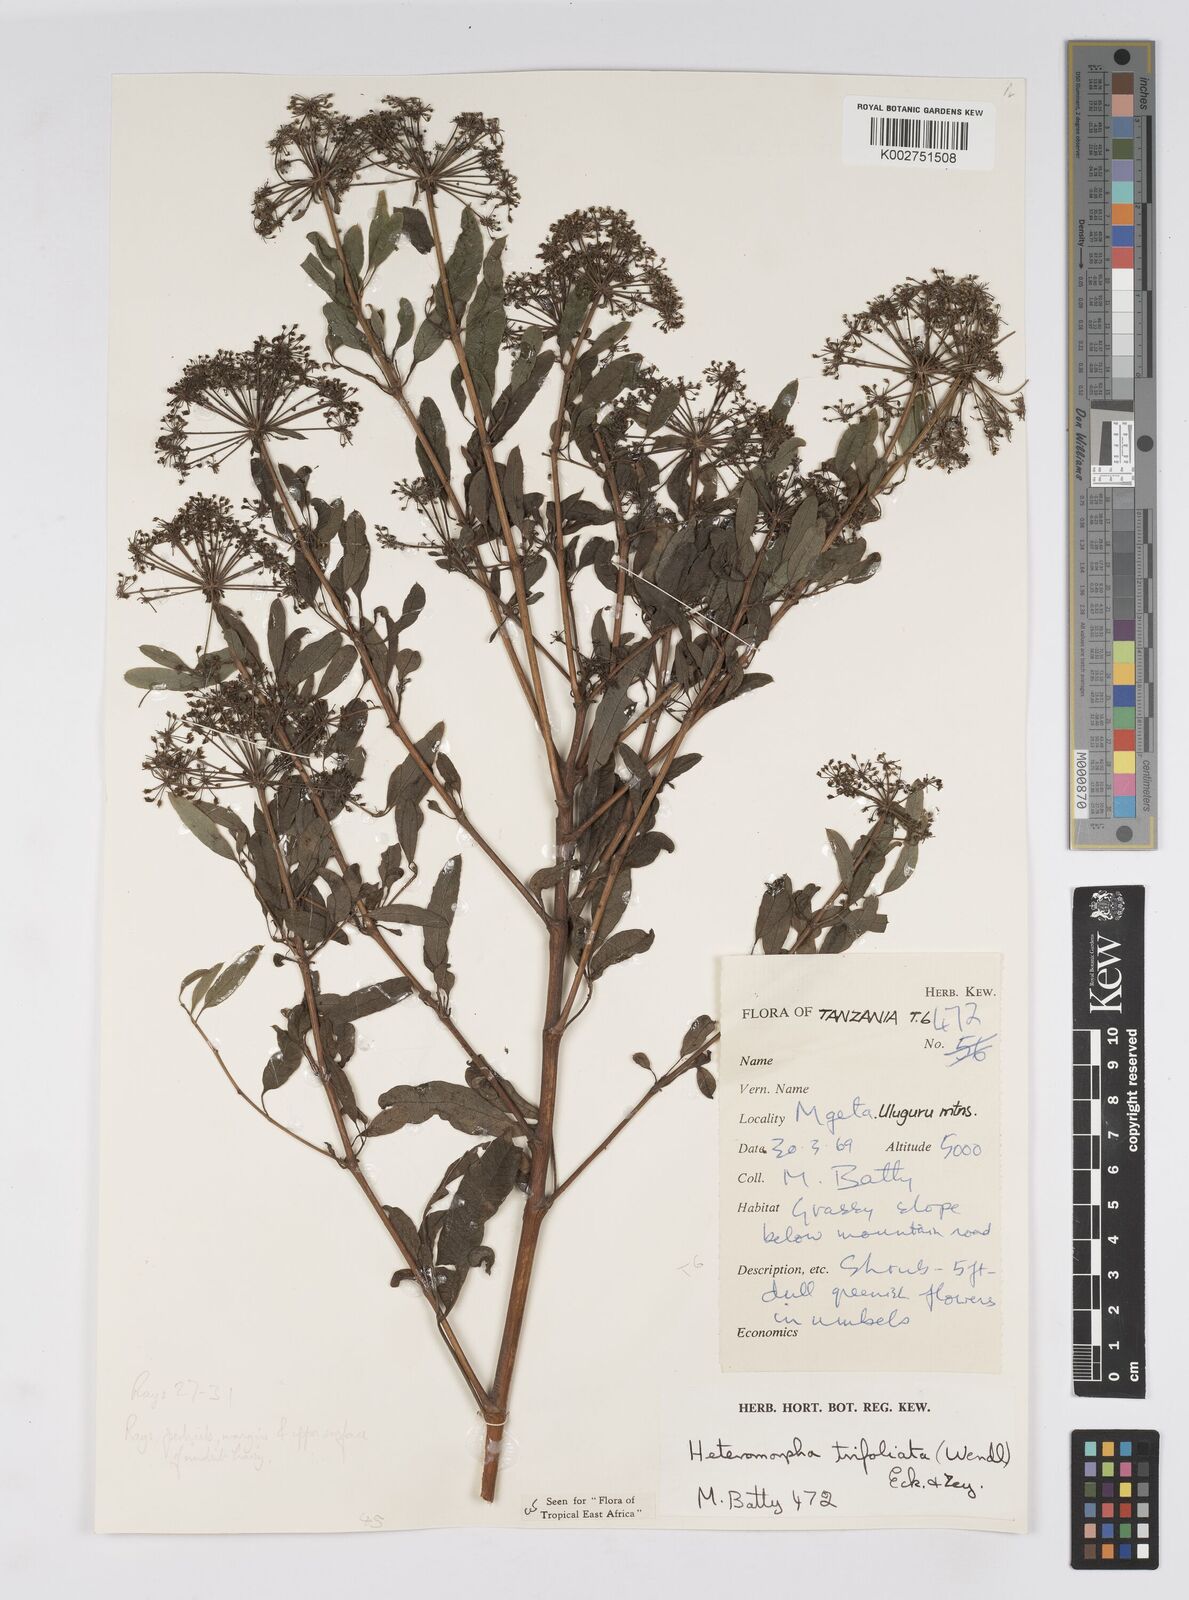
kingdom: Plantae
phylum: Tracheophyta
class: Magnoliopsida
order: Apiales
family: Apiaceae
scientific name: Apiaceae
